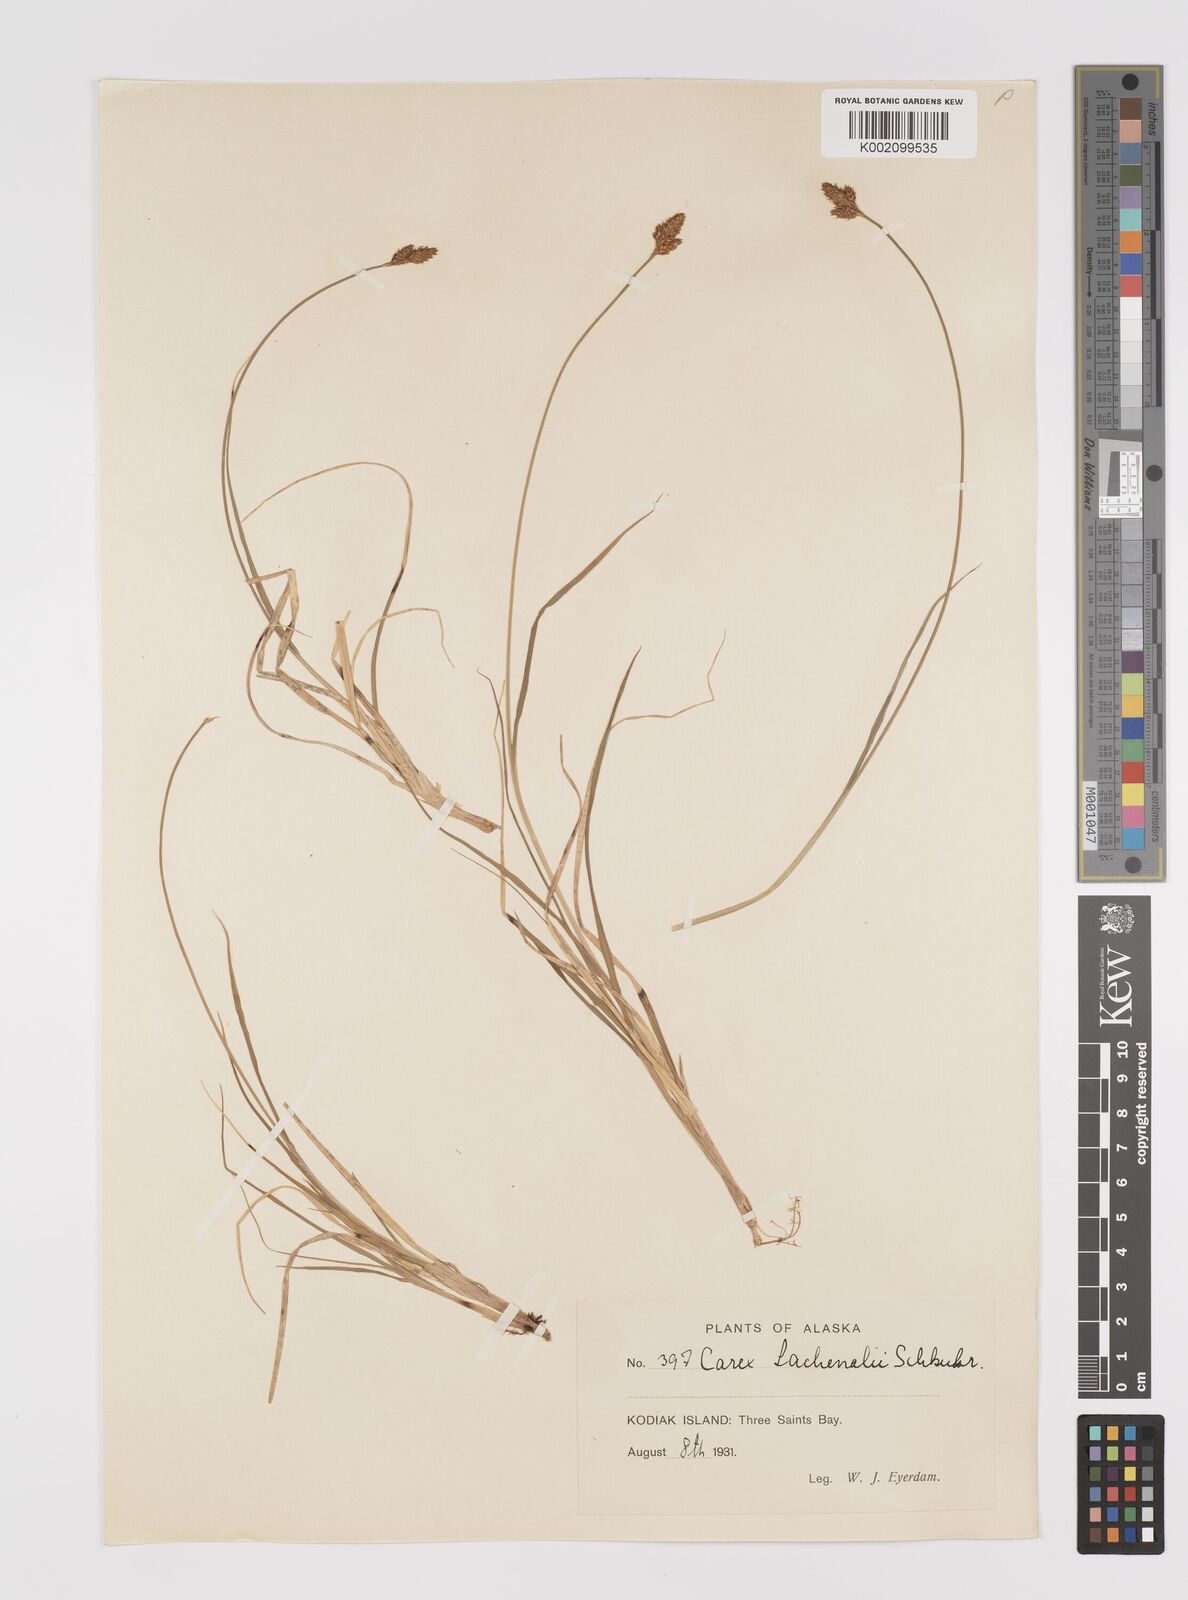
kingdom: Plantae
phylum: Tracheophyta
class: Liliopsida
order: Poales
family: Cyperaceae
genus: Carex
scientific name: Carex lachenalii
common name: Hare's-foot sedge
